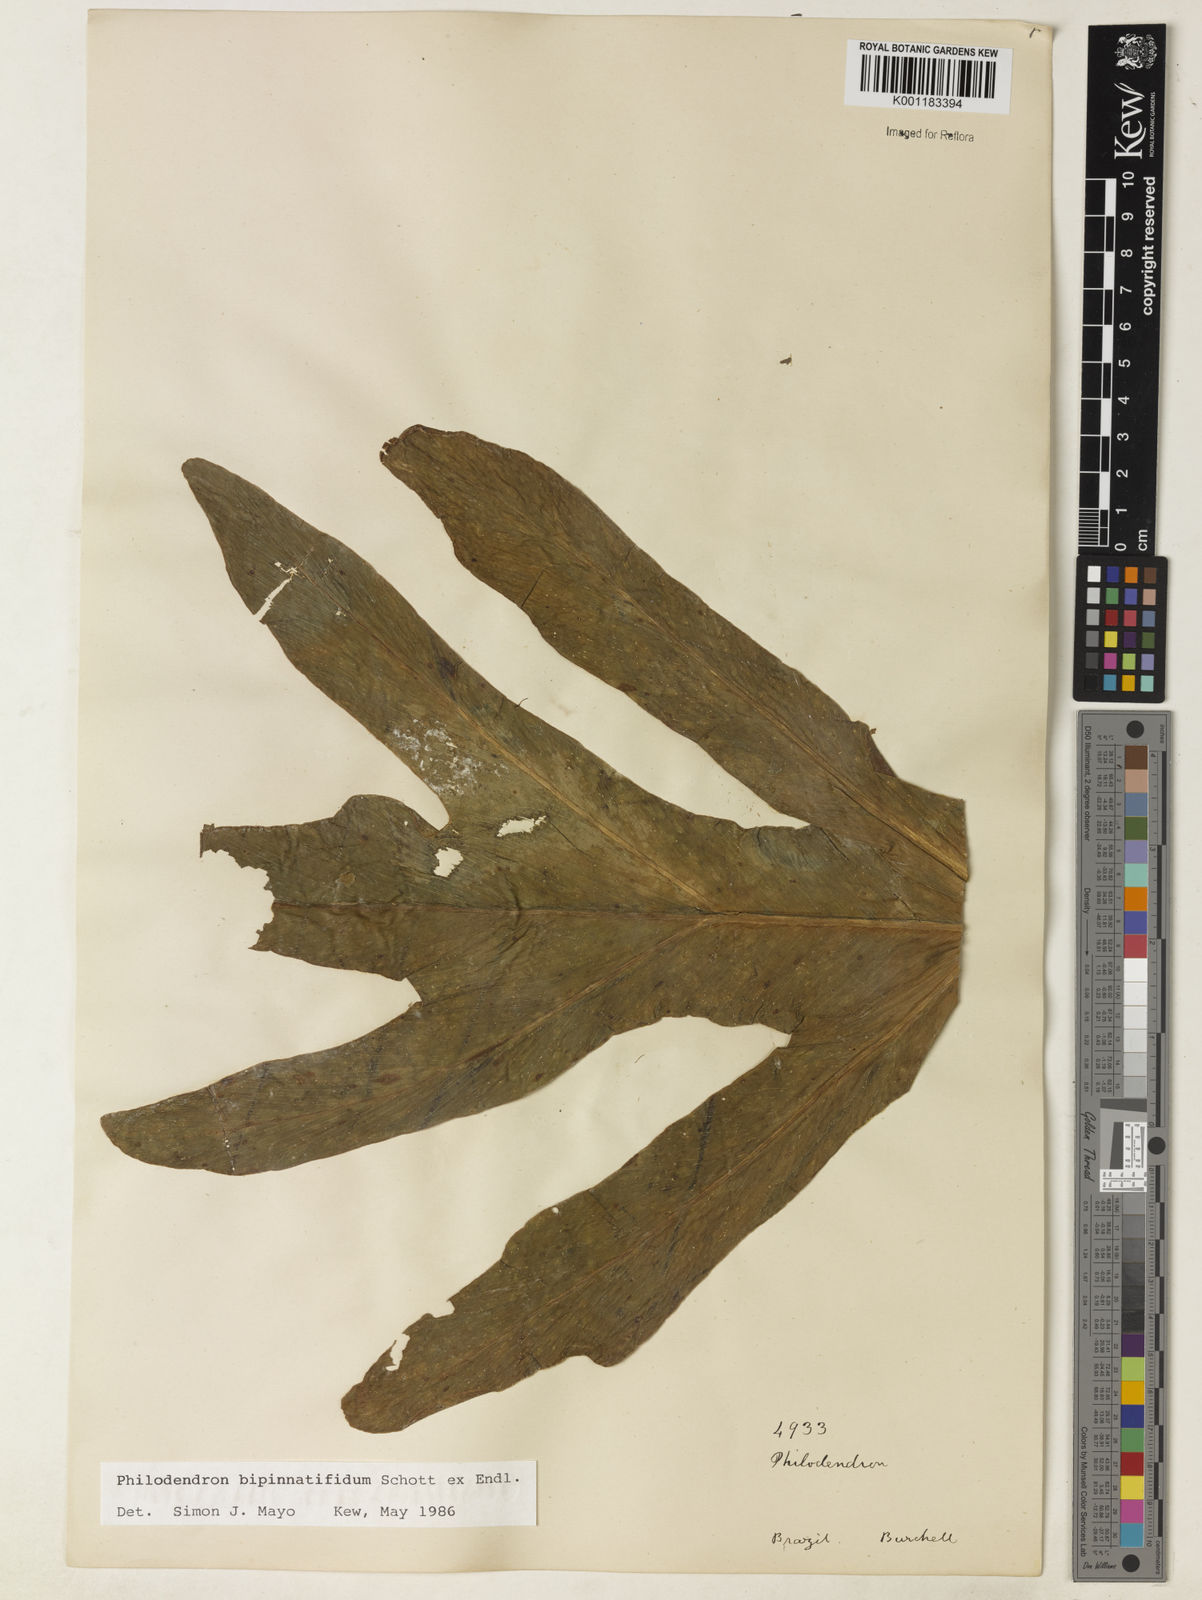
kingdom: Plantae
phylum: Tracheophyta
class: Liliopsida
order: Alismatales
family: Araceae
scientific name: Araceae
